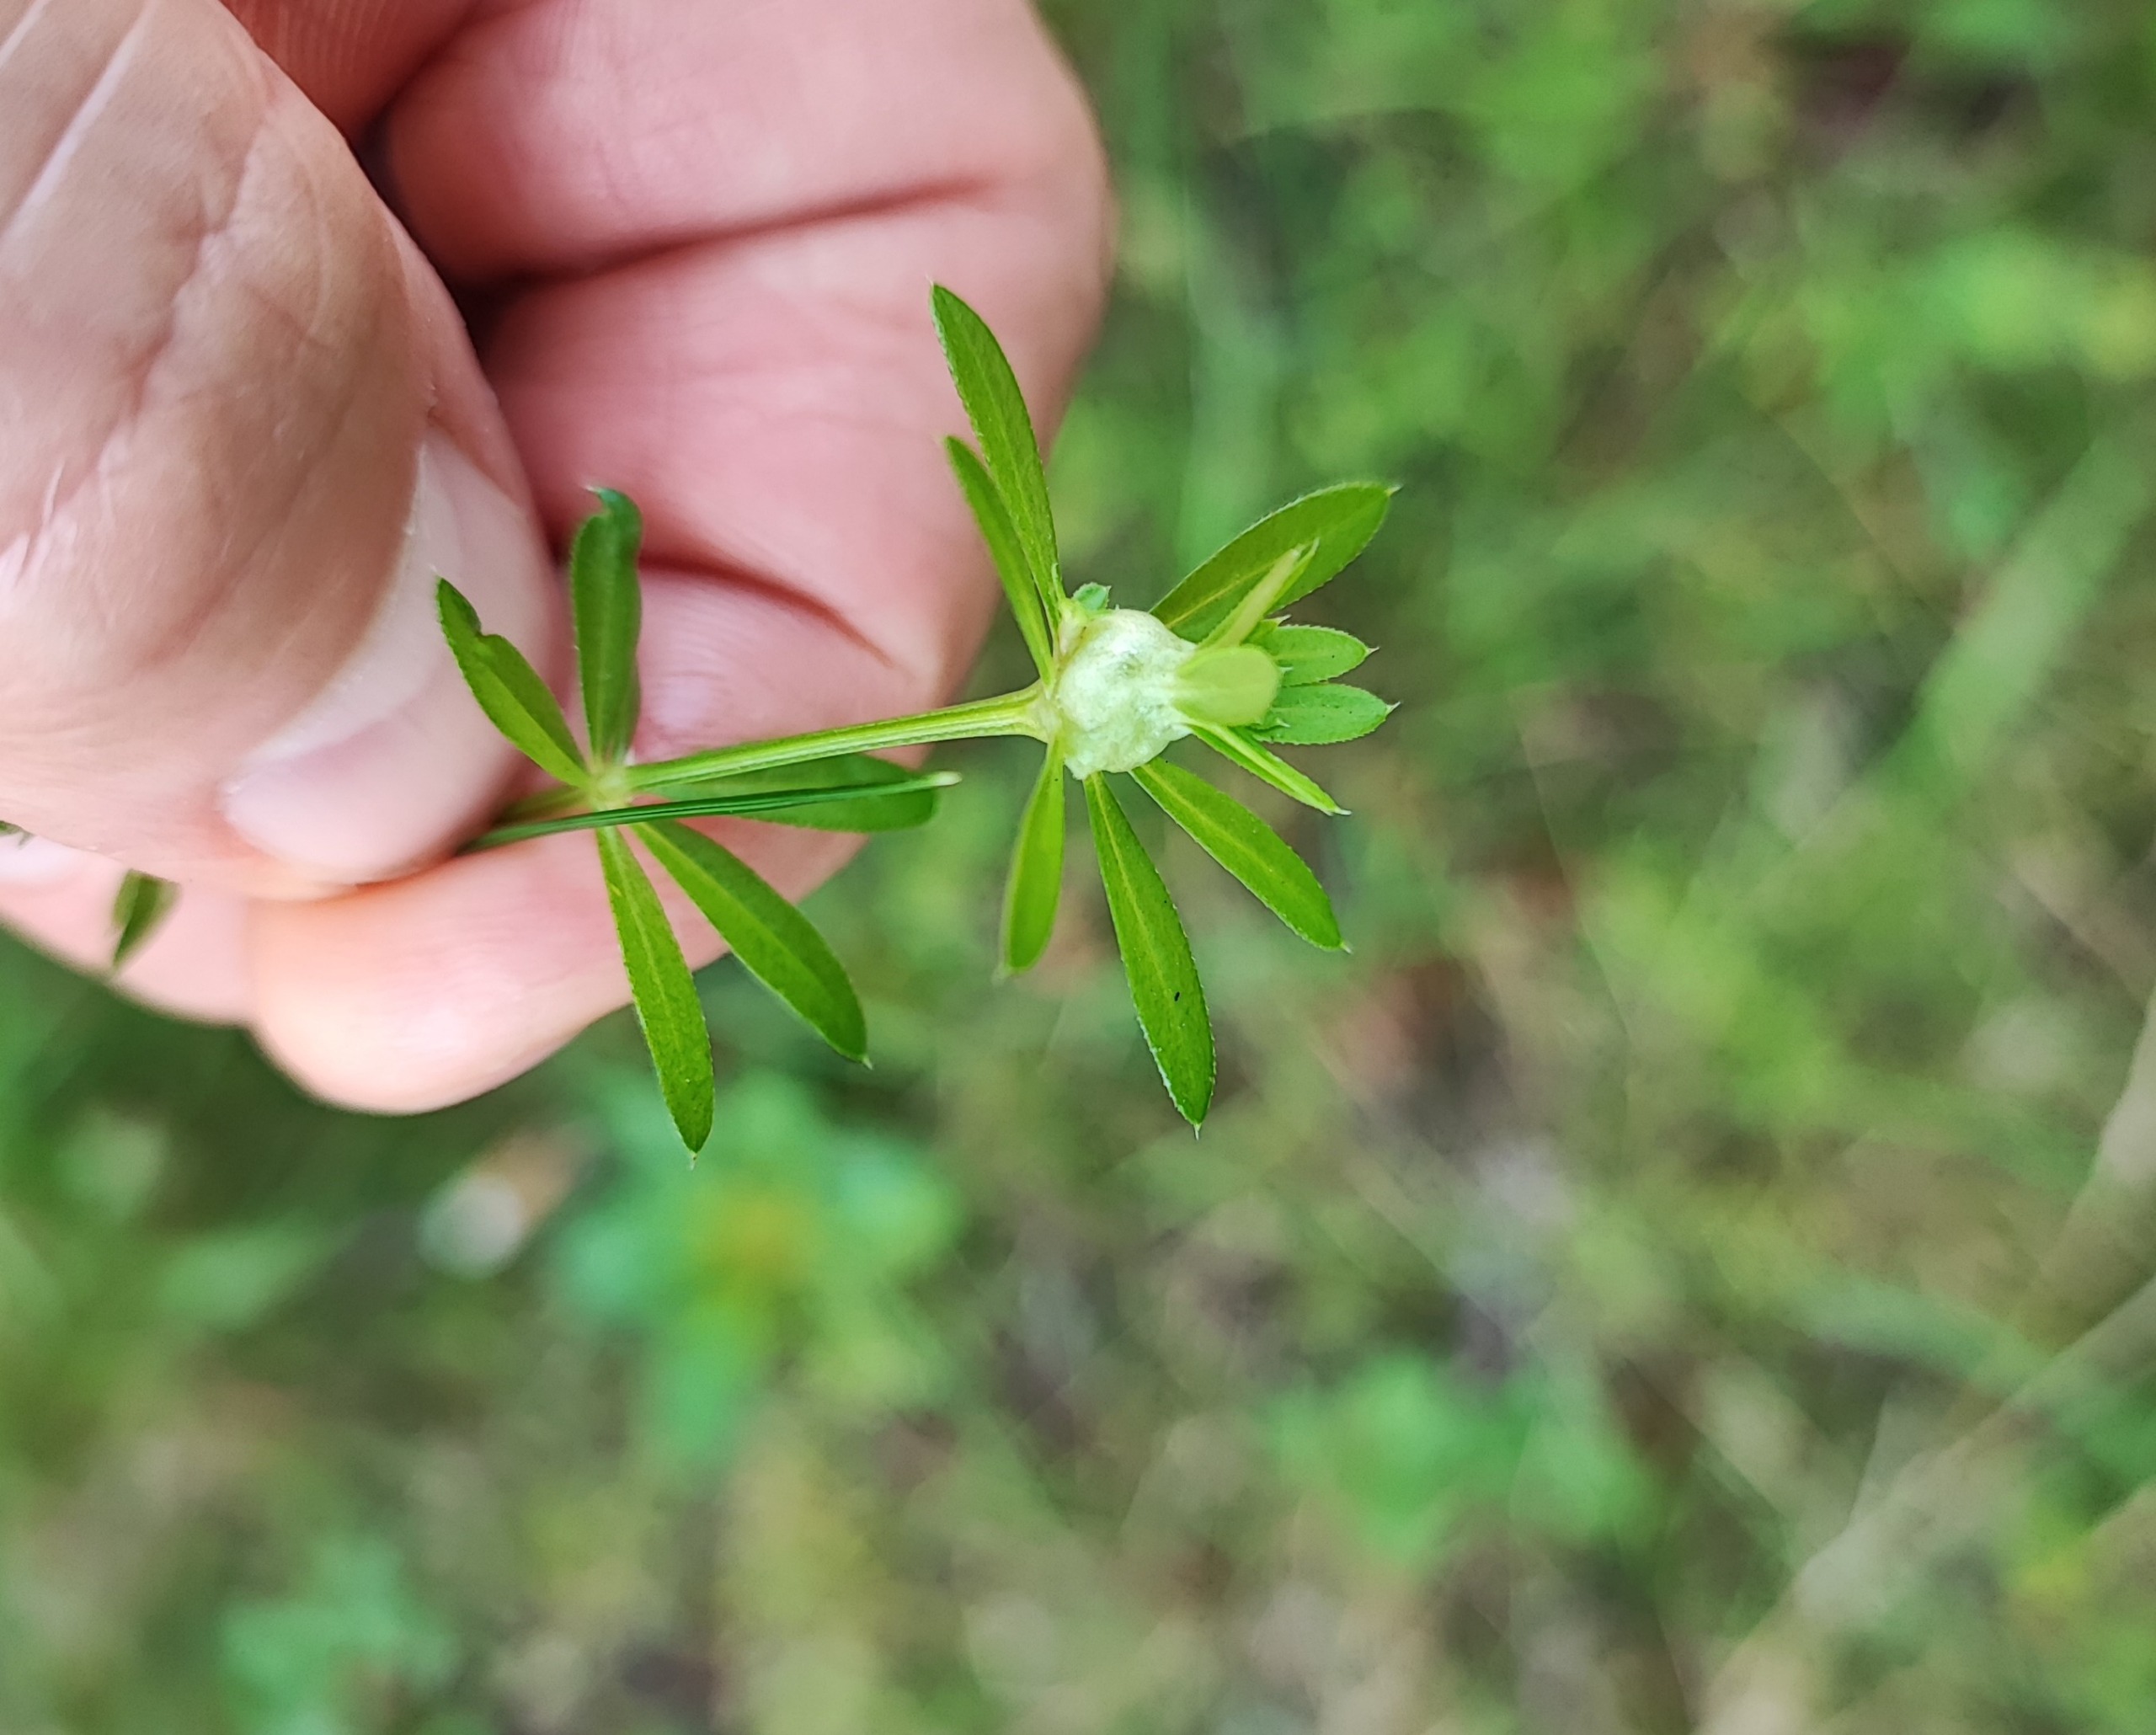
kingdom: Animalia
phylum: Arthropoda
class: Insecta
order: Diptera
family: Cecidomyiidae
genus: Geocrypta
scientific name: Geocrypta galii
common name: Snerrestængelgalmyg
